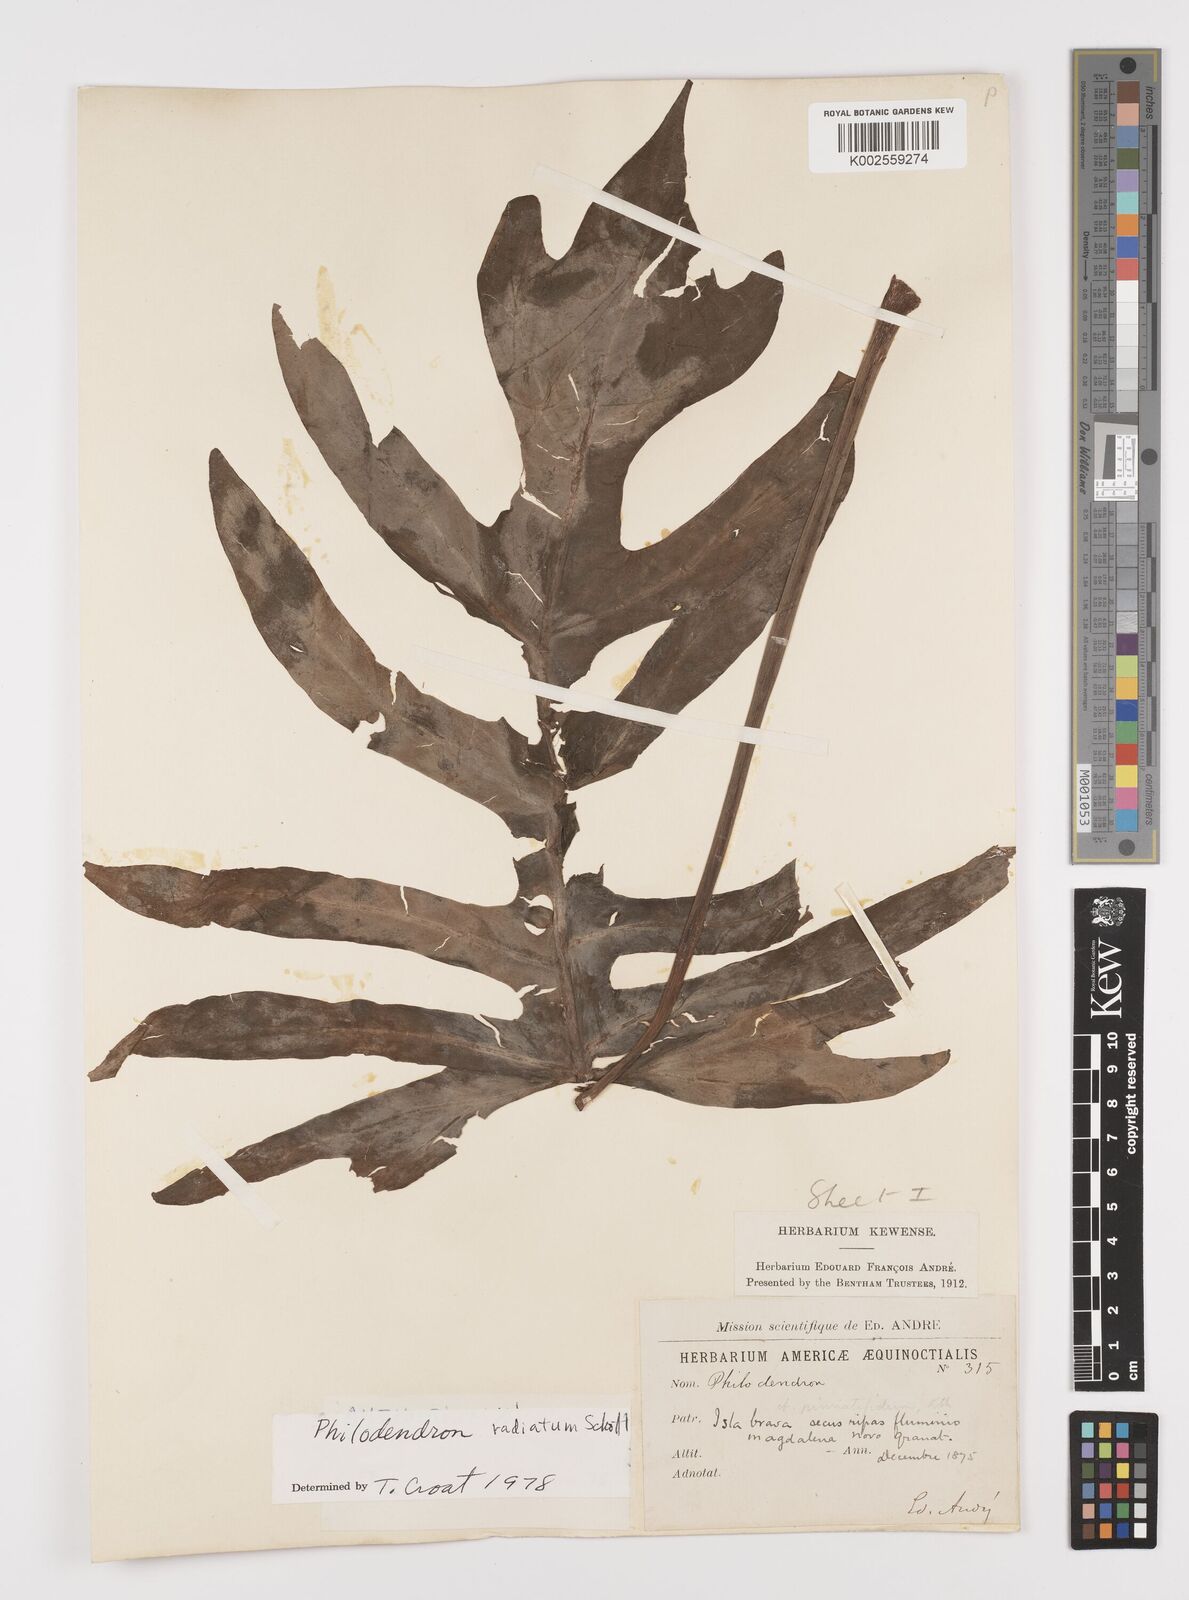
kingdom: Plantae
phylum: Tracheophyta
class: Liliopsida
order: Alismatales
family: Araceae
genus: Philodendron
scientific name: Philodendron radiatum
